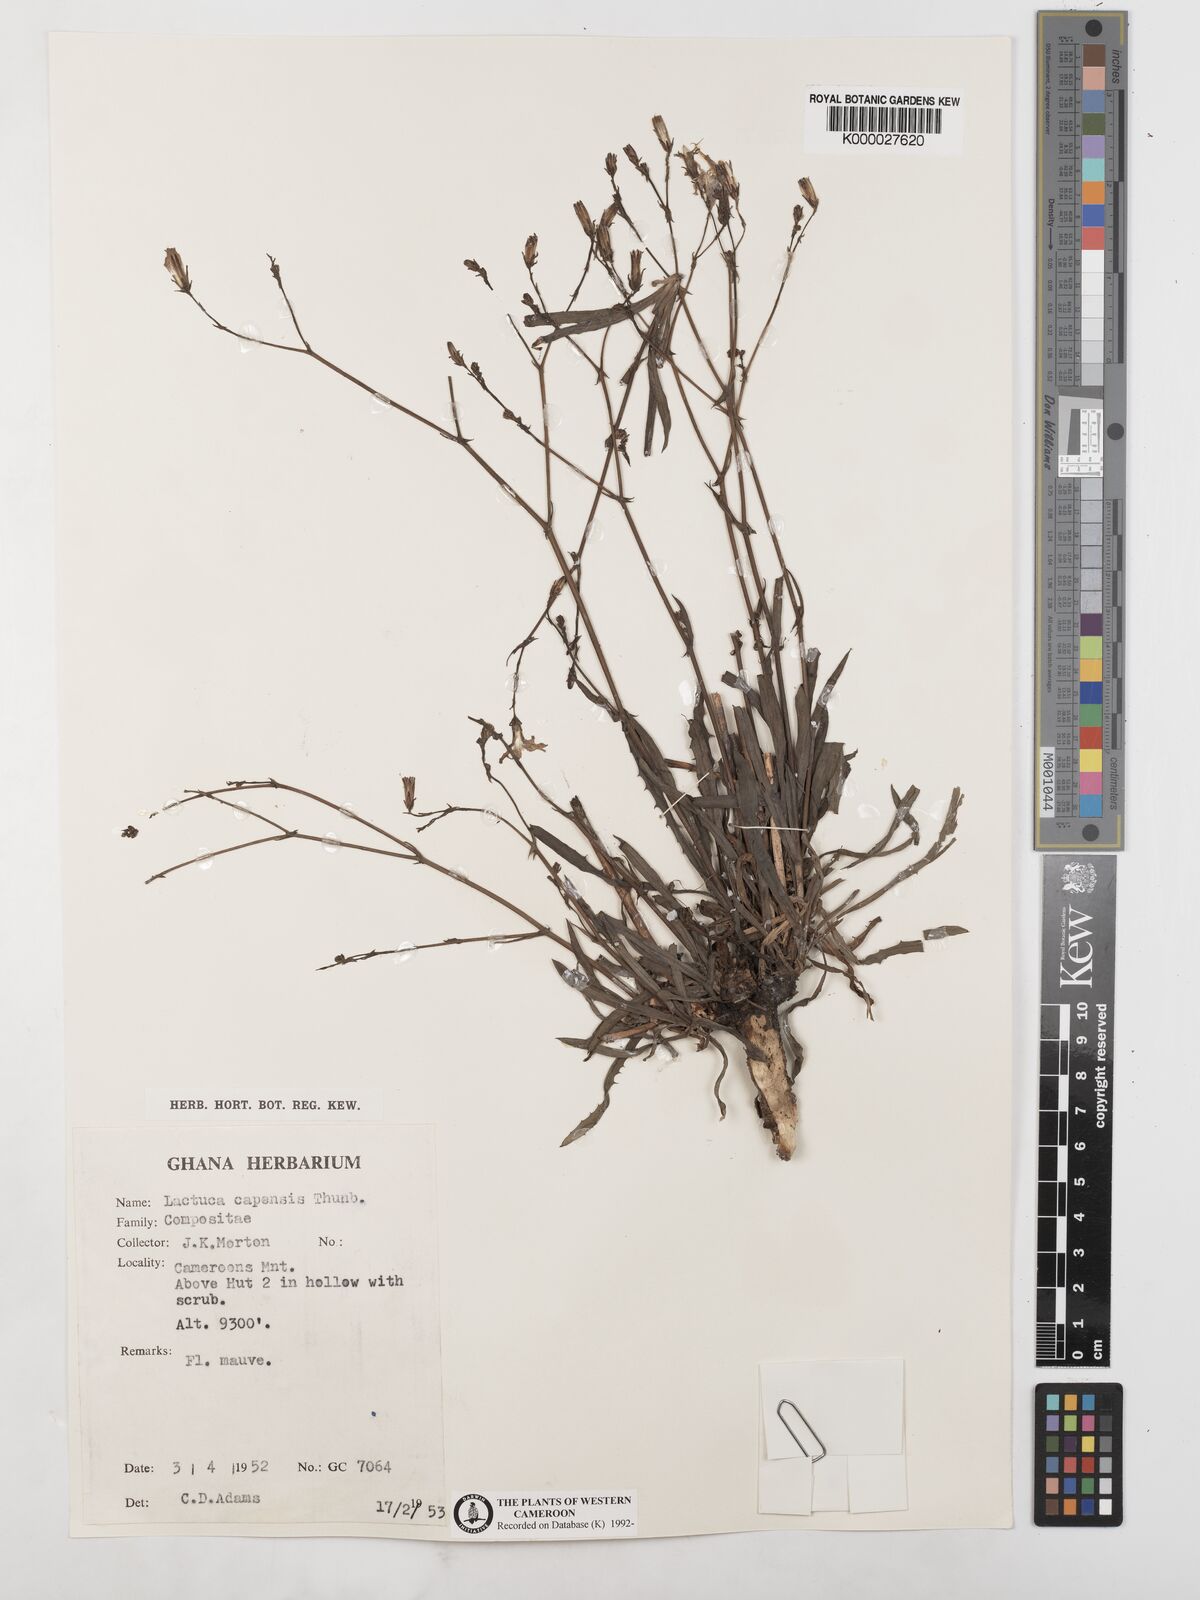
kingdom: Plantae
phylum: Tracheophyta
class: Magnoliopsida
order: Asterales
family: Asteraceae
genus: Lactuca
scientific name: Lactuca inermis
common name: Wild lettuce
